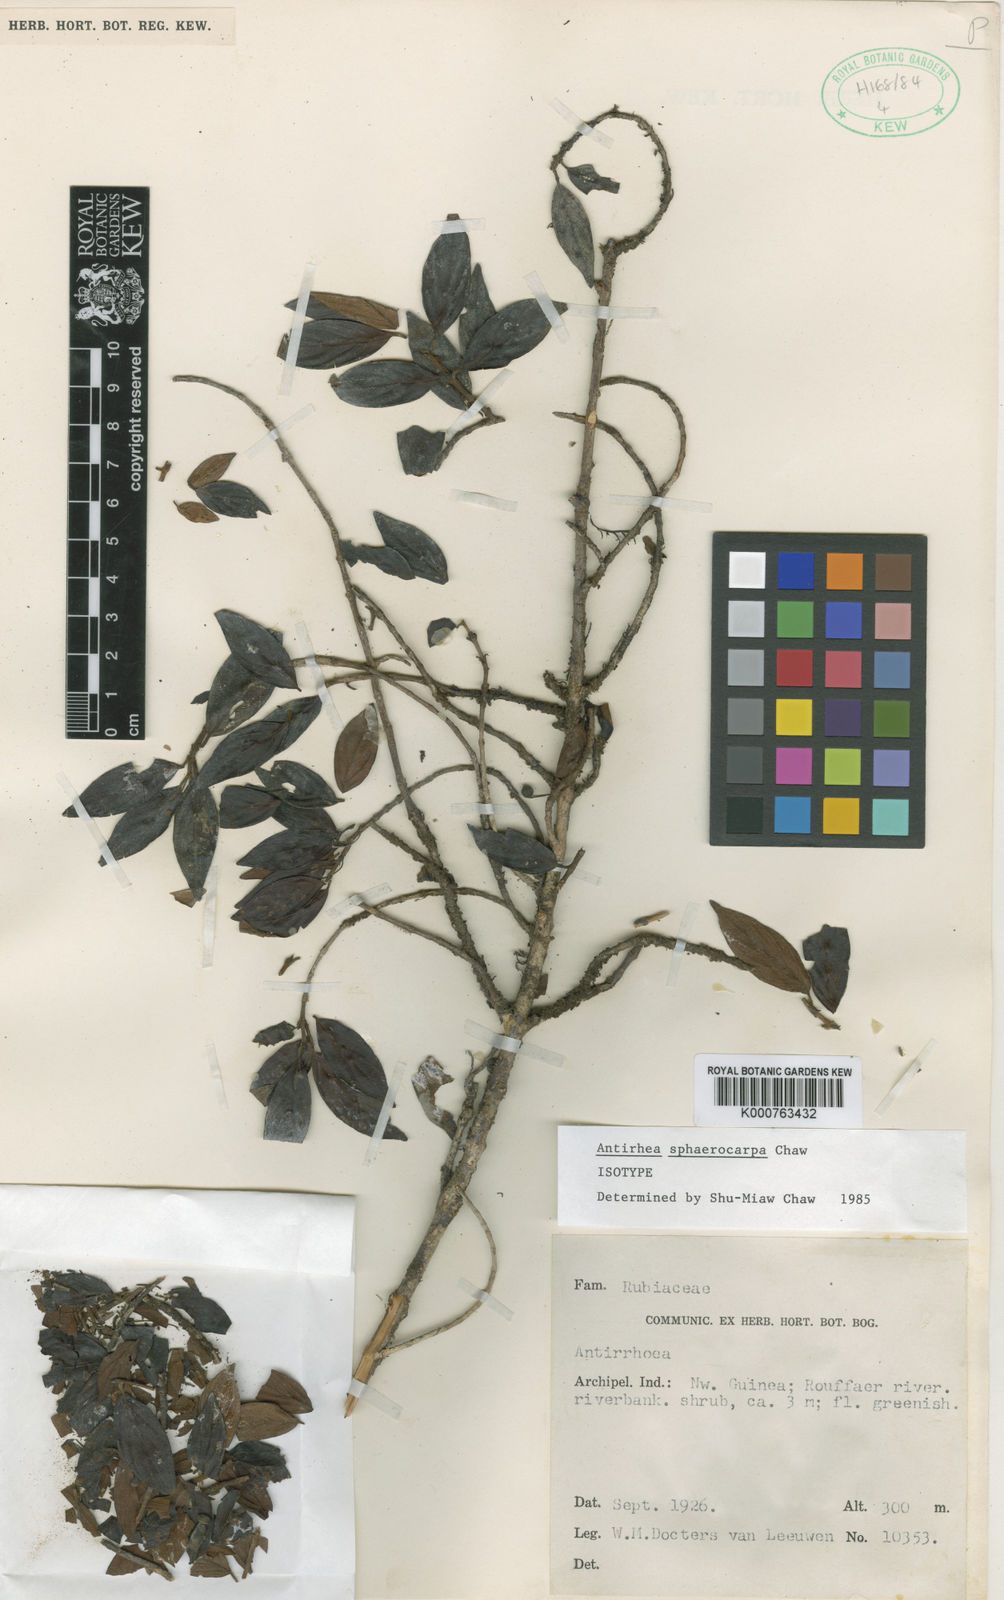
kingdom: Plantae
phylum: Tracheophyta
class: Magnoliopsida
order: Gentianales
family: Rubiaceae
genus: Guettardella
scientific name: Guettardella sphaerocarpa
